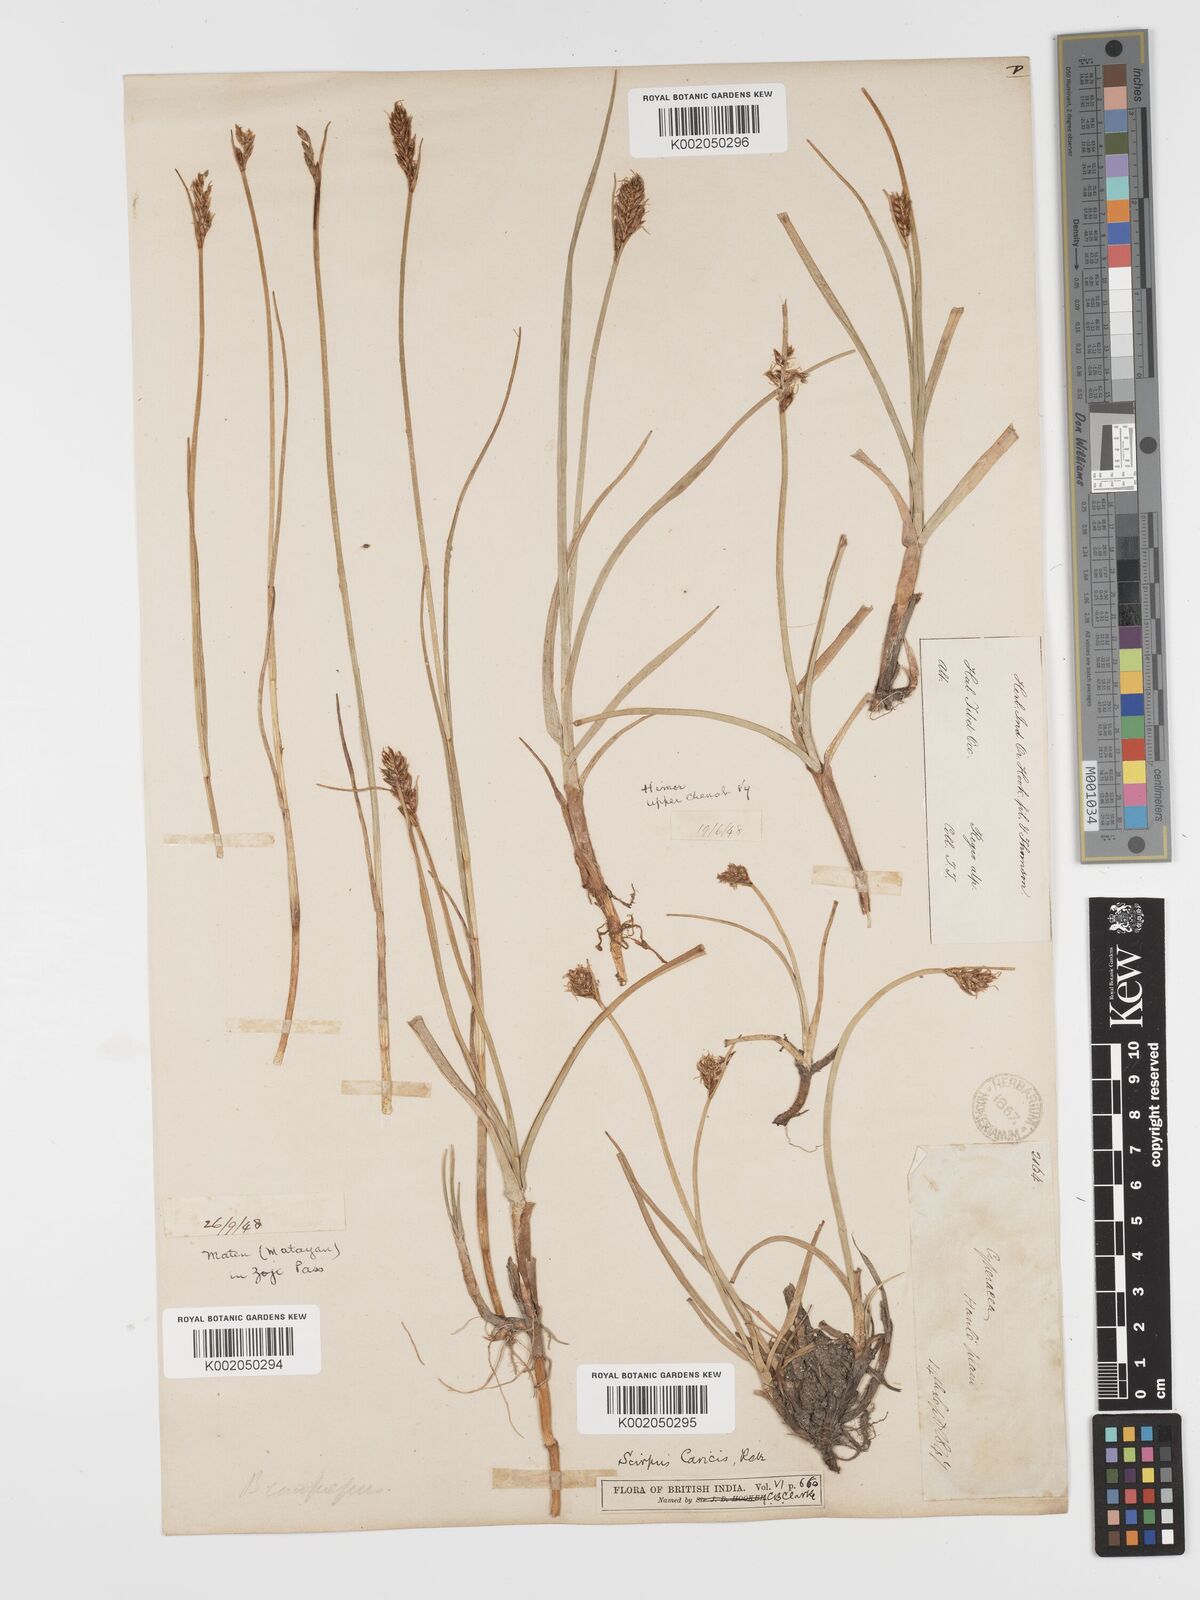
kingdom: Plantae
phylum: Tracheophyta
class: Liliopsida
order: Poales
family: Cyperaceae
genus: Blysmus
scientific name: Blysmus compressus
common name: Flat-sedge
